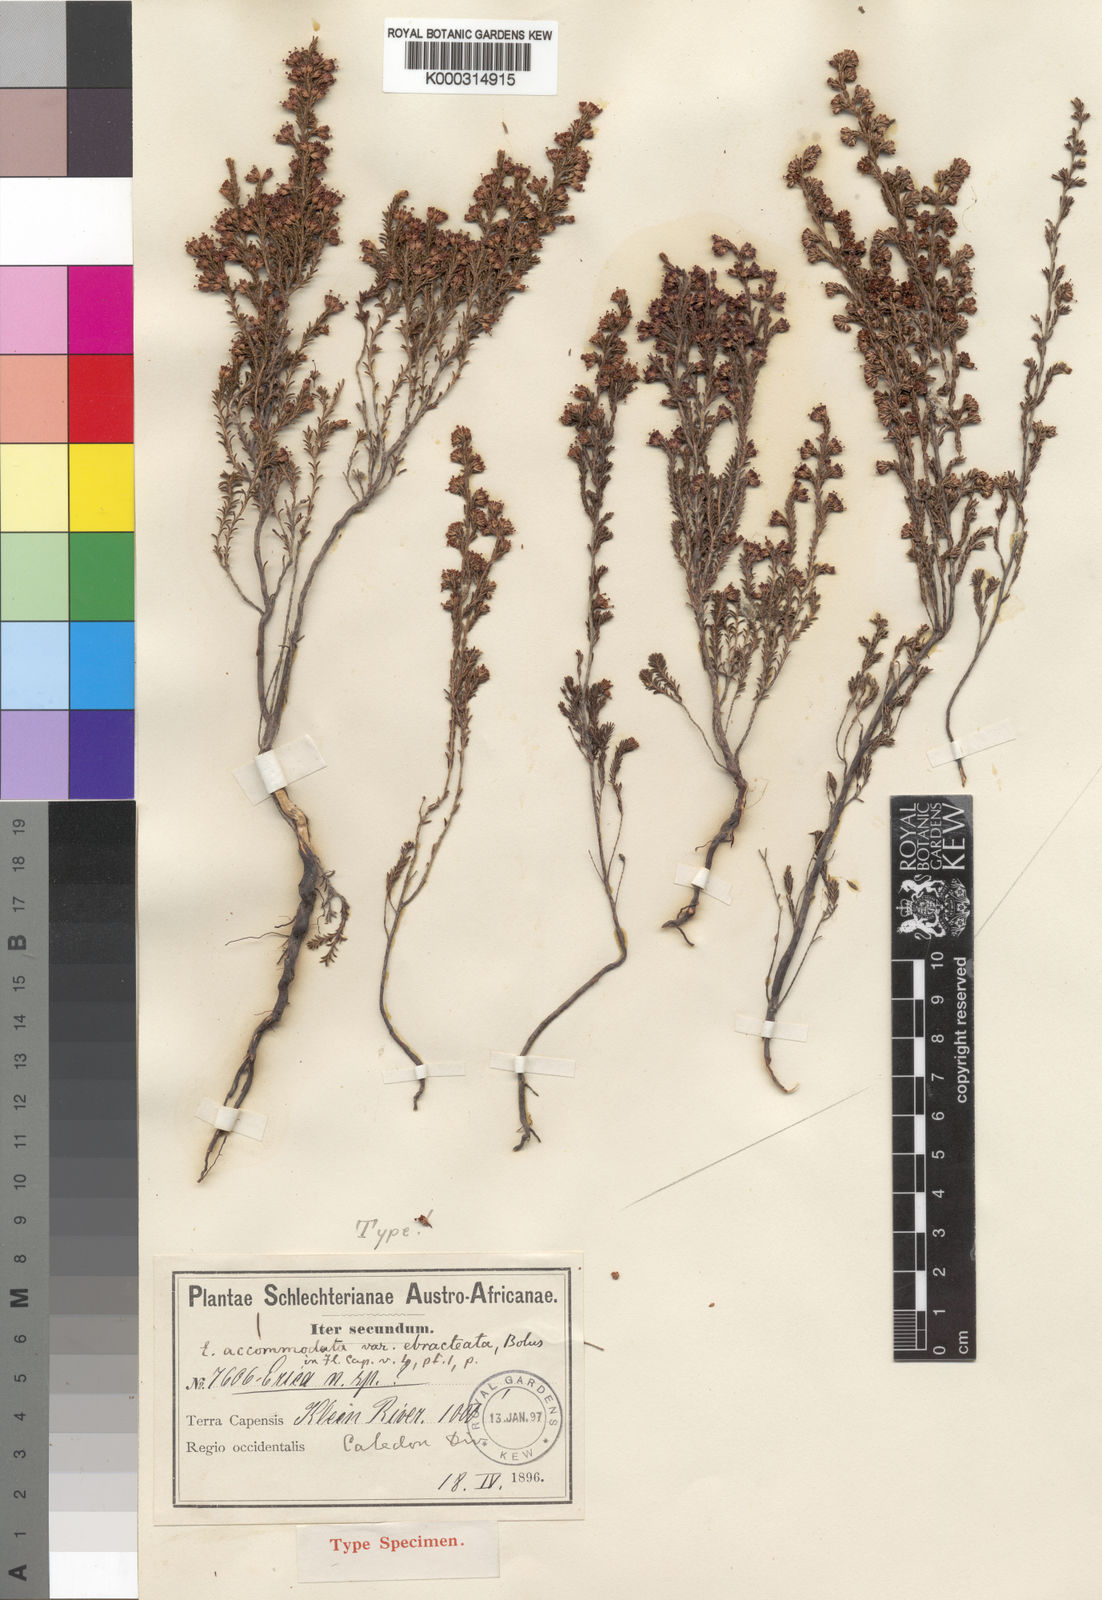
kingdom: Plantae
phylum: Tracheophyta
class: Magnoliopsida
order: Ericales
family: Ericaceae
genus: Erica
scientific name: Erica
